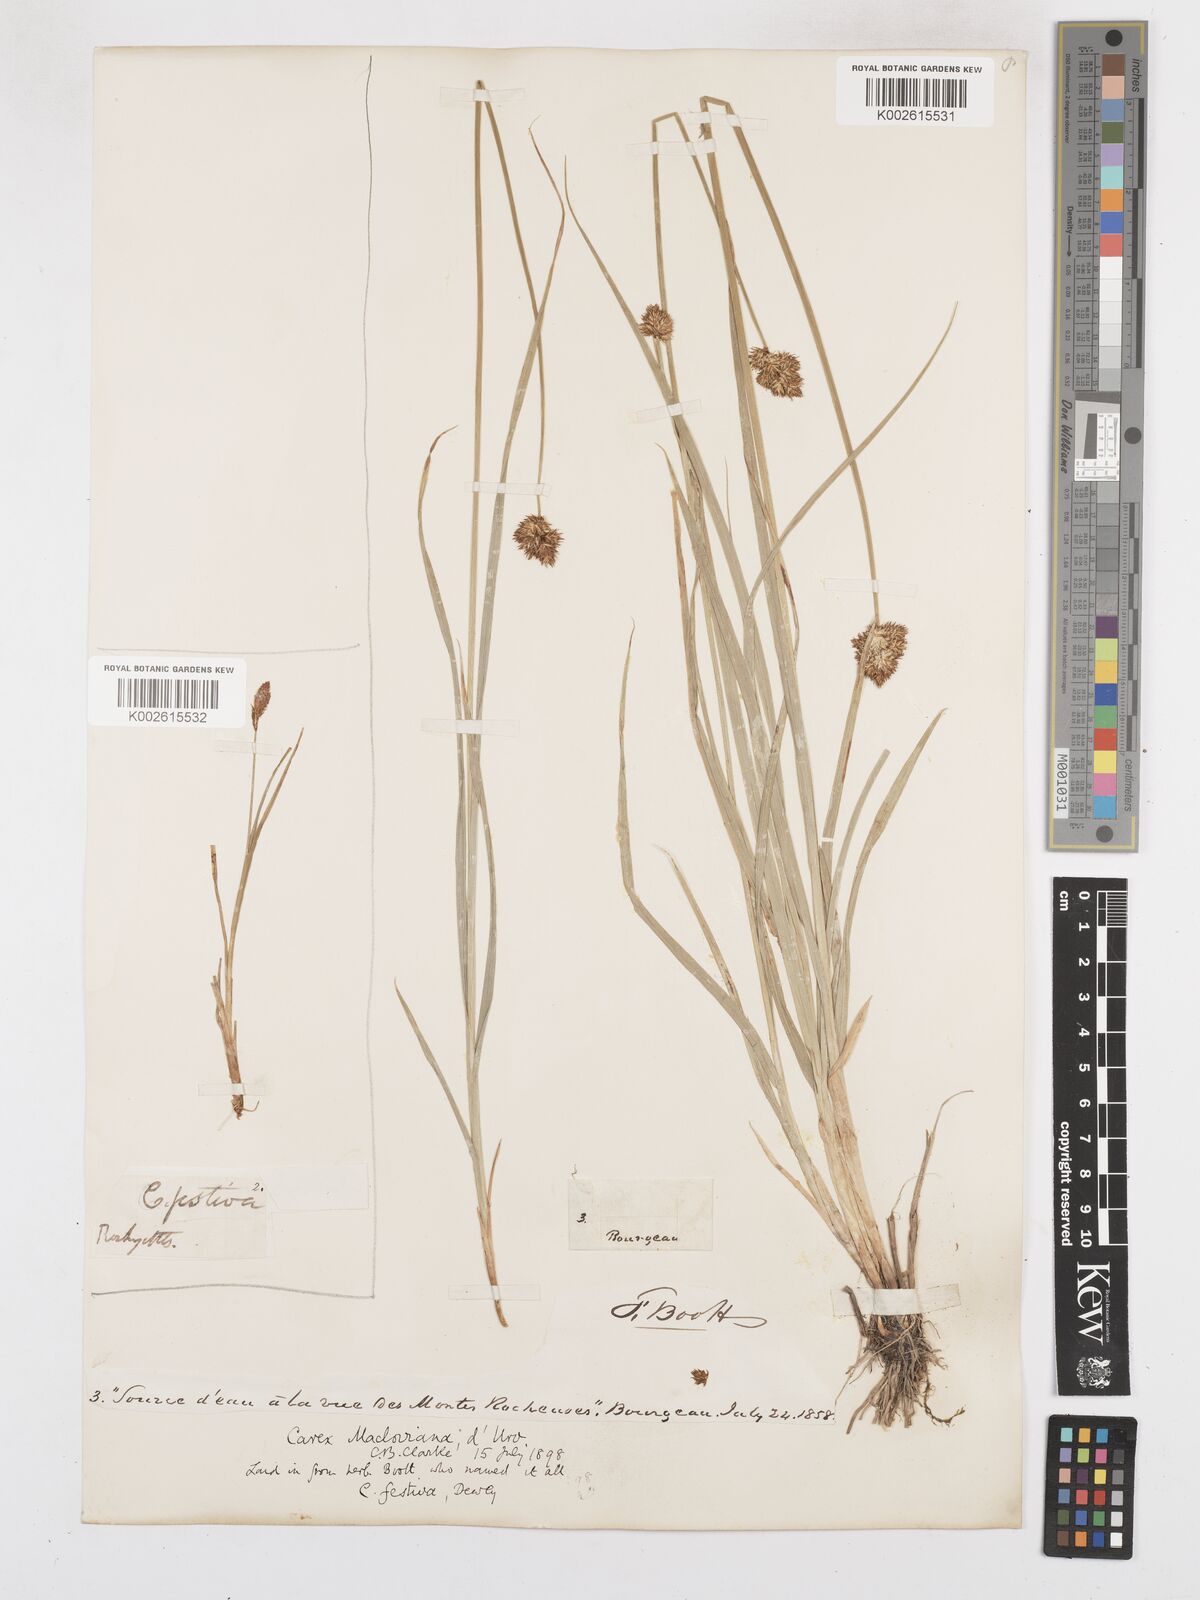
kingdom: Plantae
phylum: Tracheophyta
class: Liliopsida
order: Poales
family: Cyperaceae
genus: Carex
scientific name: Carex subfusca
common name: Brown sedge
